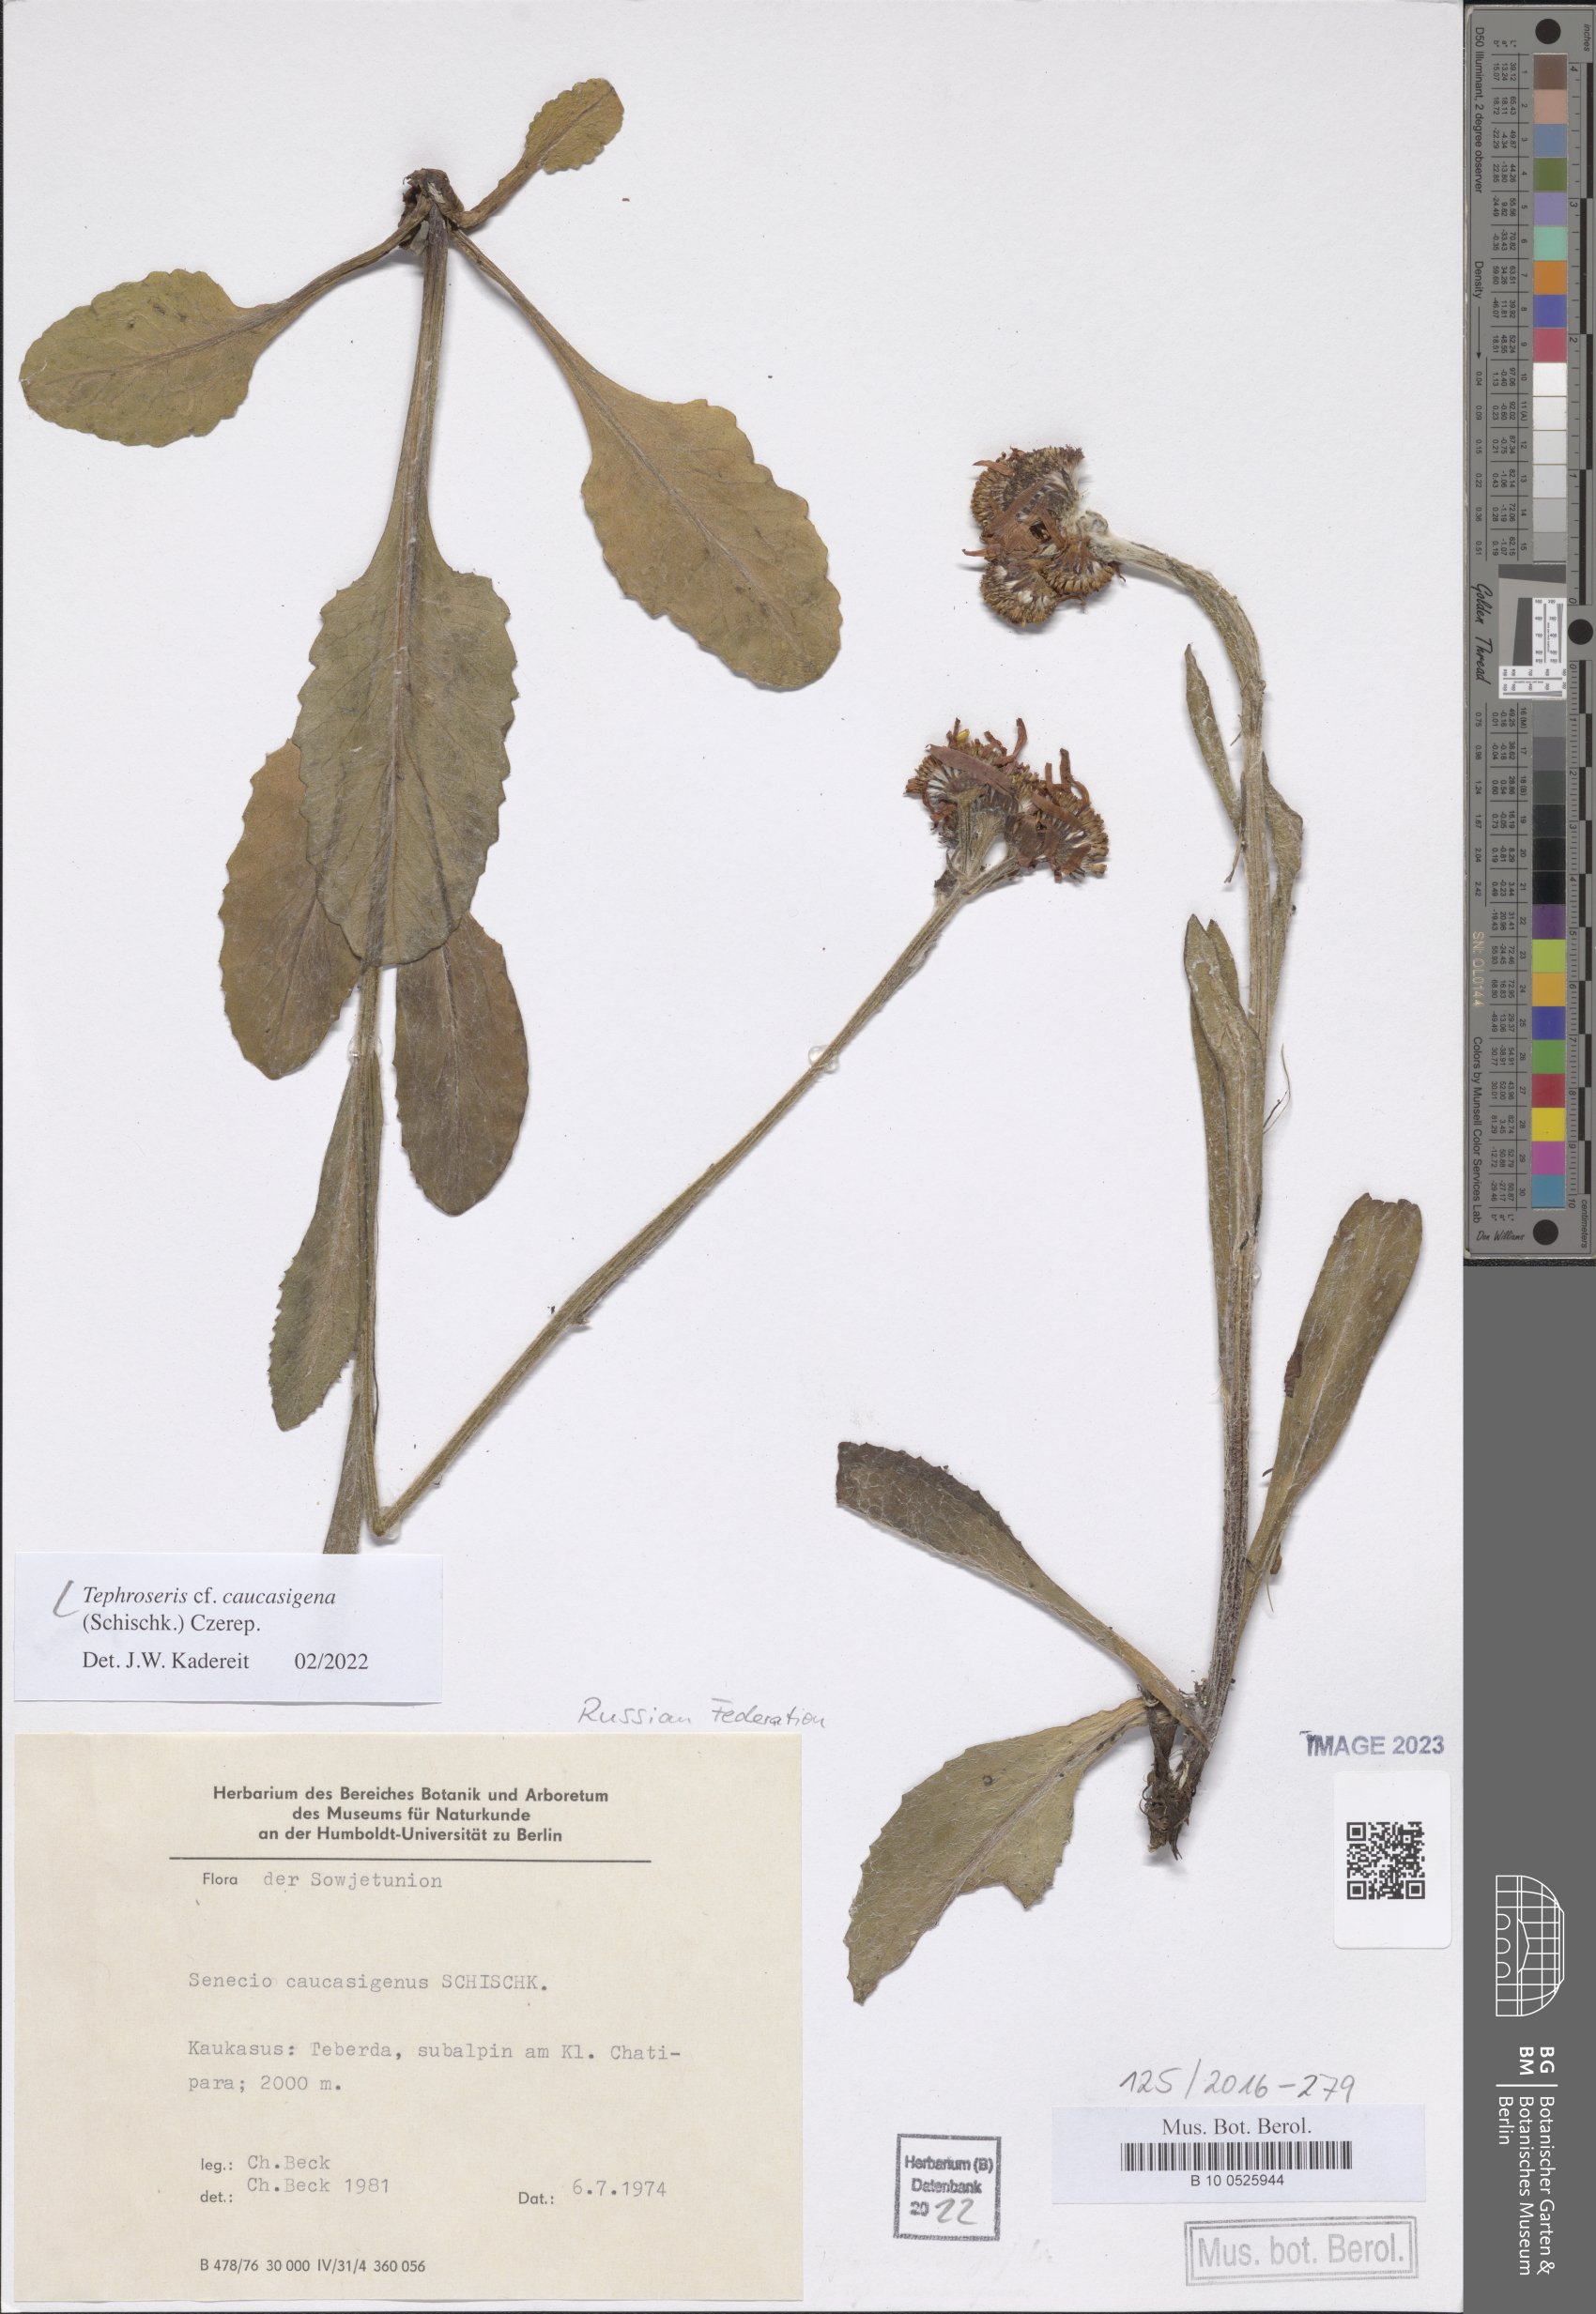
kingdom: Plantae
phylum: Tracheophyta
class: Magnoliopsida
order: Asterales
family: Asteraceae
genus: Tephroseris
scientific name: Tephroseris integrifolia
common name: Field fleawort
